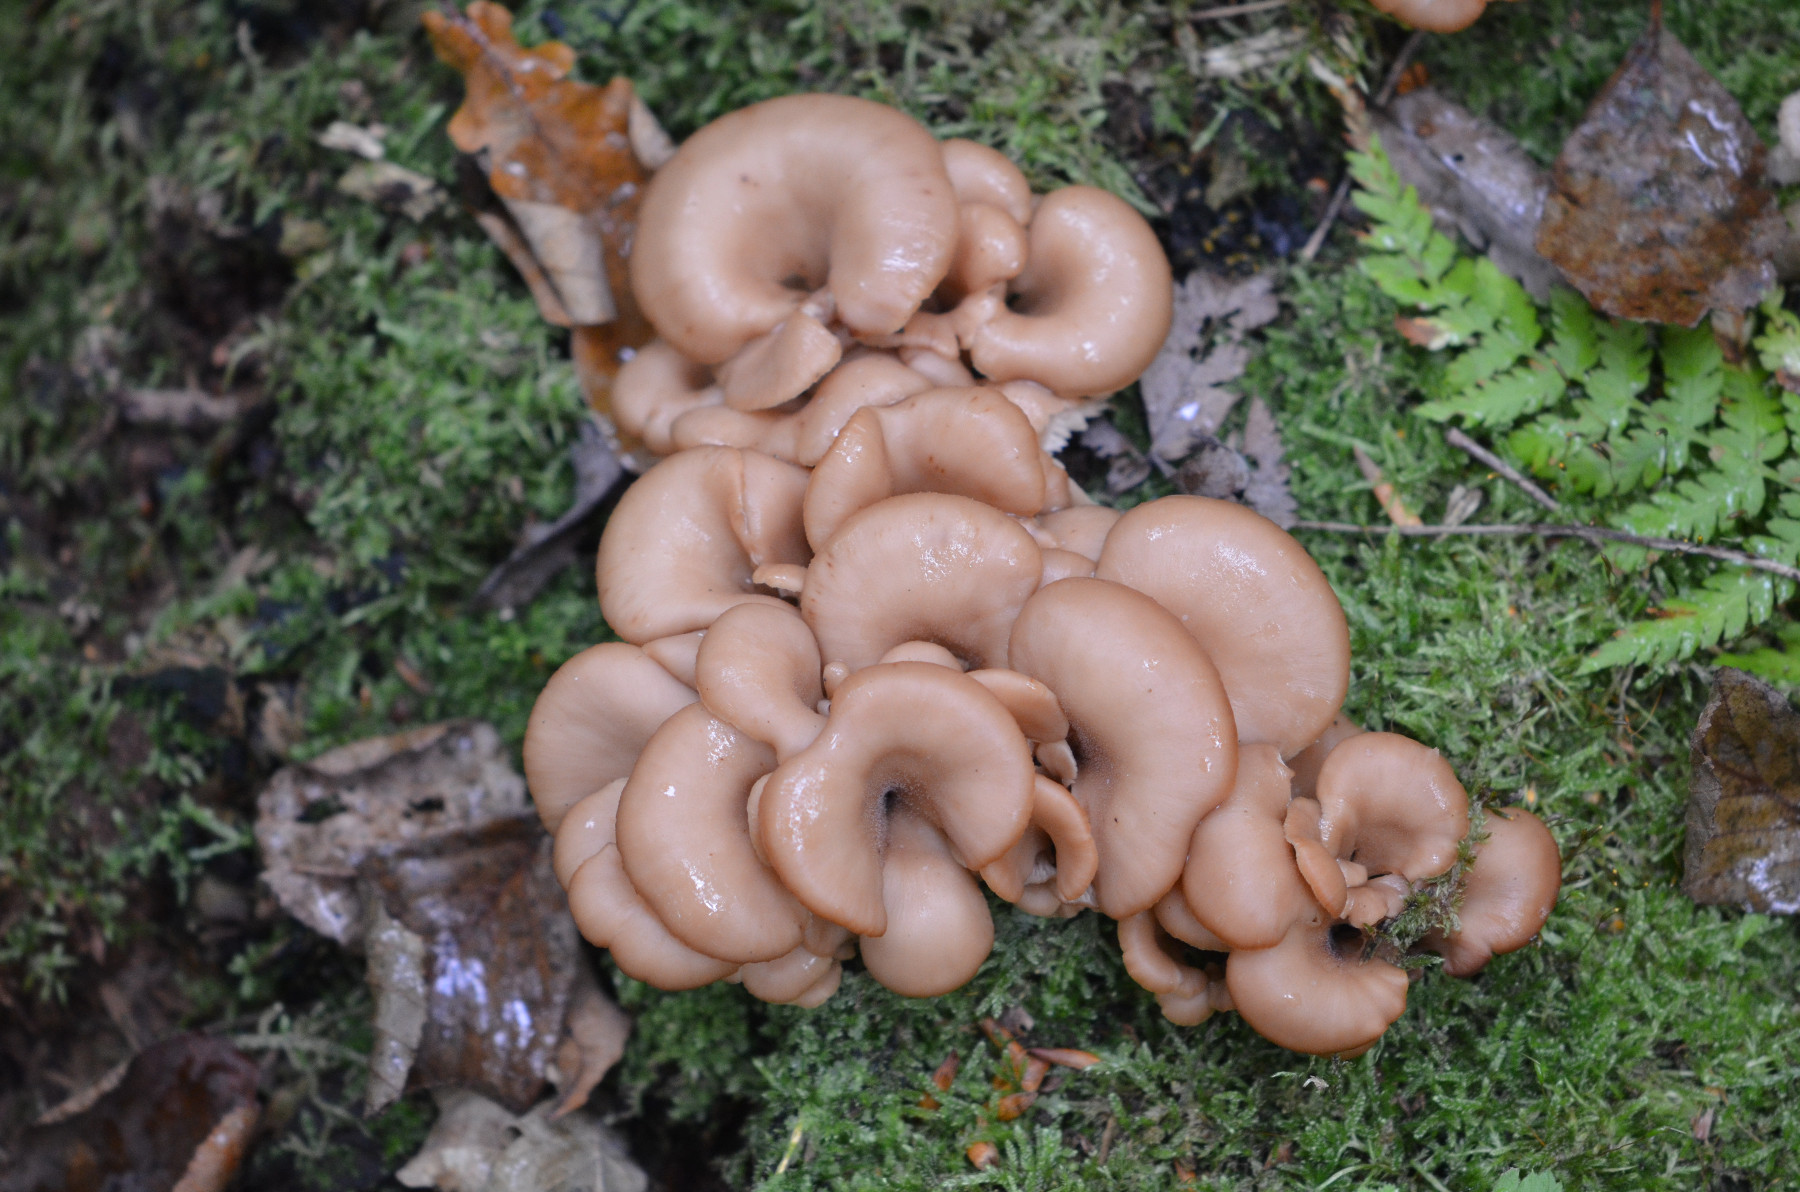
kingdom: Fungi
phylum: Basidiomycota
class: Agaricomycetes
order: Russulales
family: Auriscalpiaceae
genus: Lentinellus
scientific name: Lentinellus cochleatus
